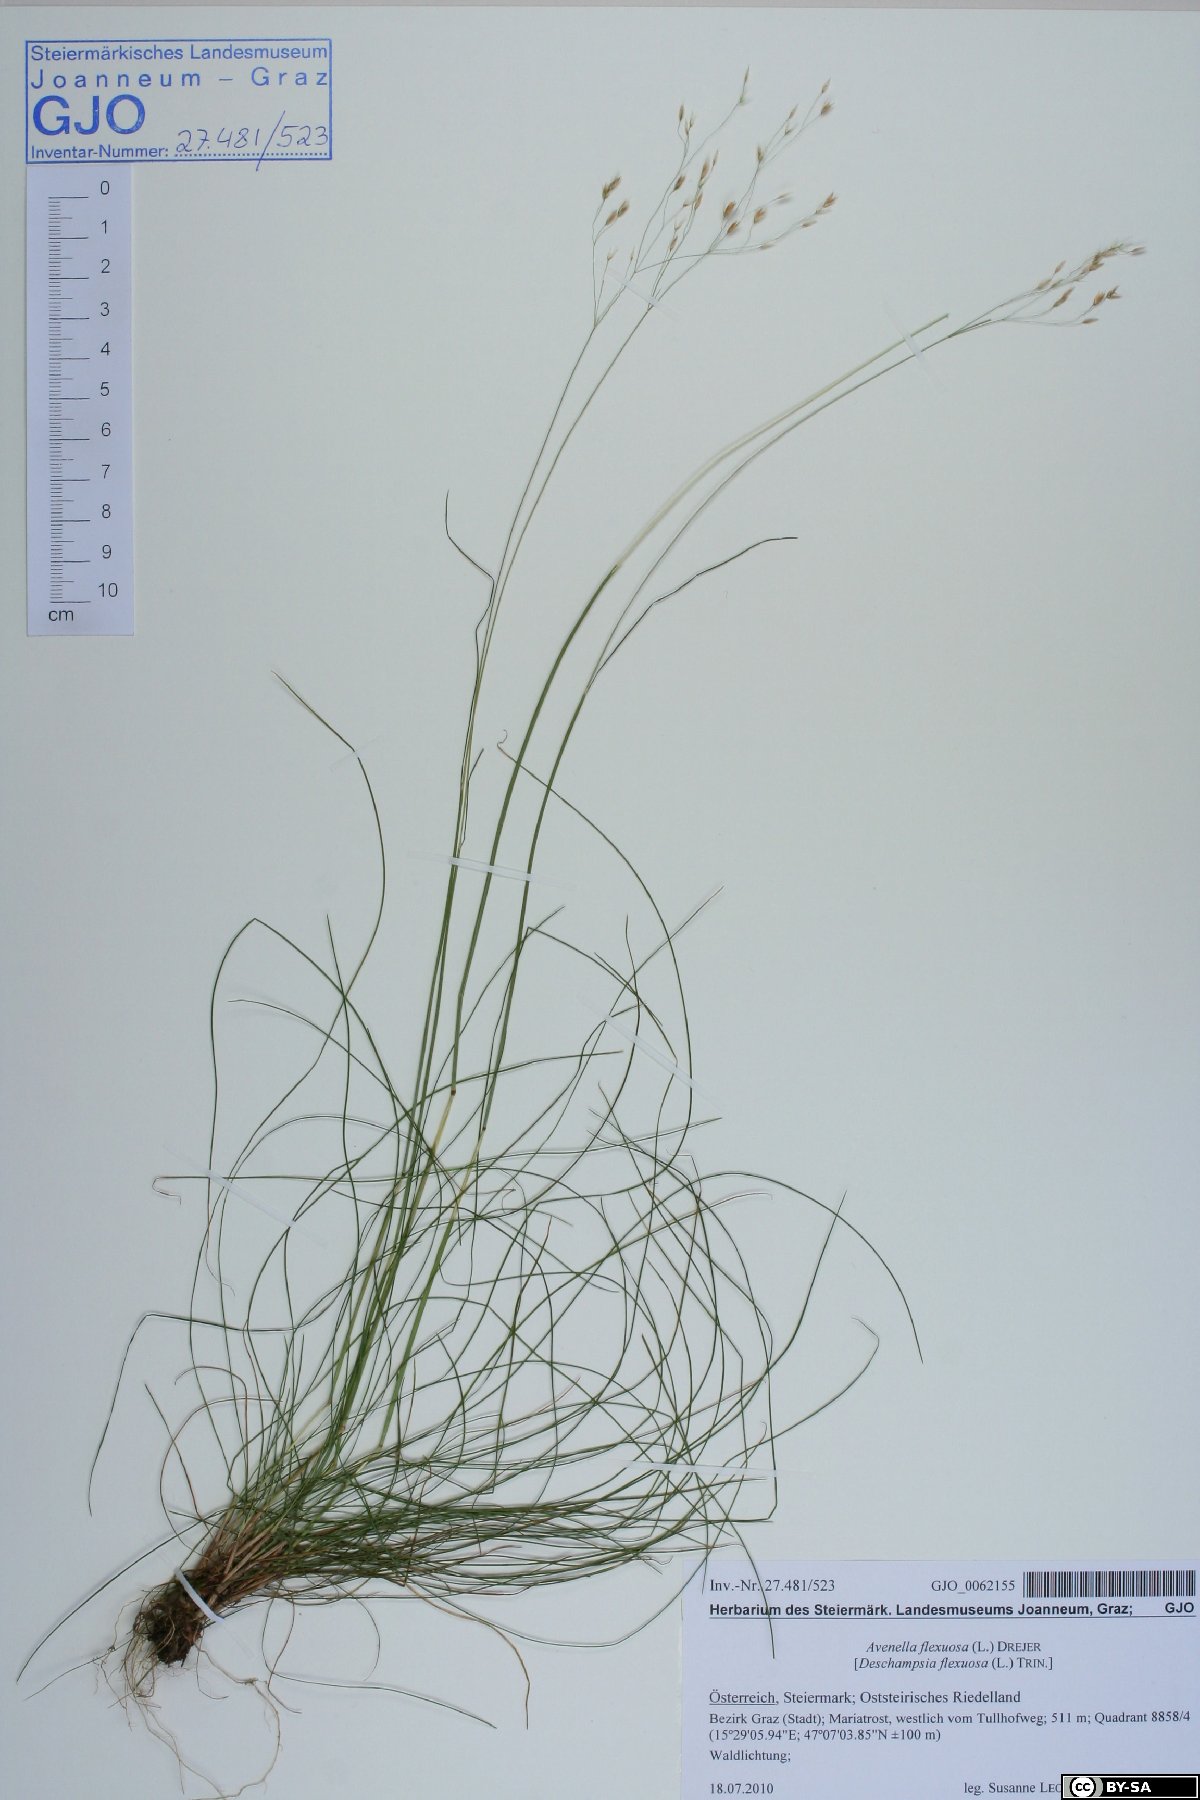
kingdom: Plantae
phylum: Tracheophyta
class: Liliopsida
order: Poales
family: Poaceae
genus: Avenella
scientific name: Avenella flexuosa
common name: Wavy hairgrass
